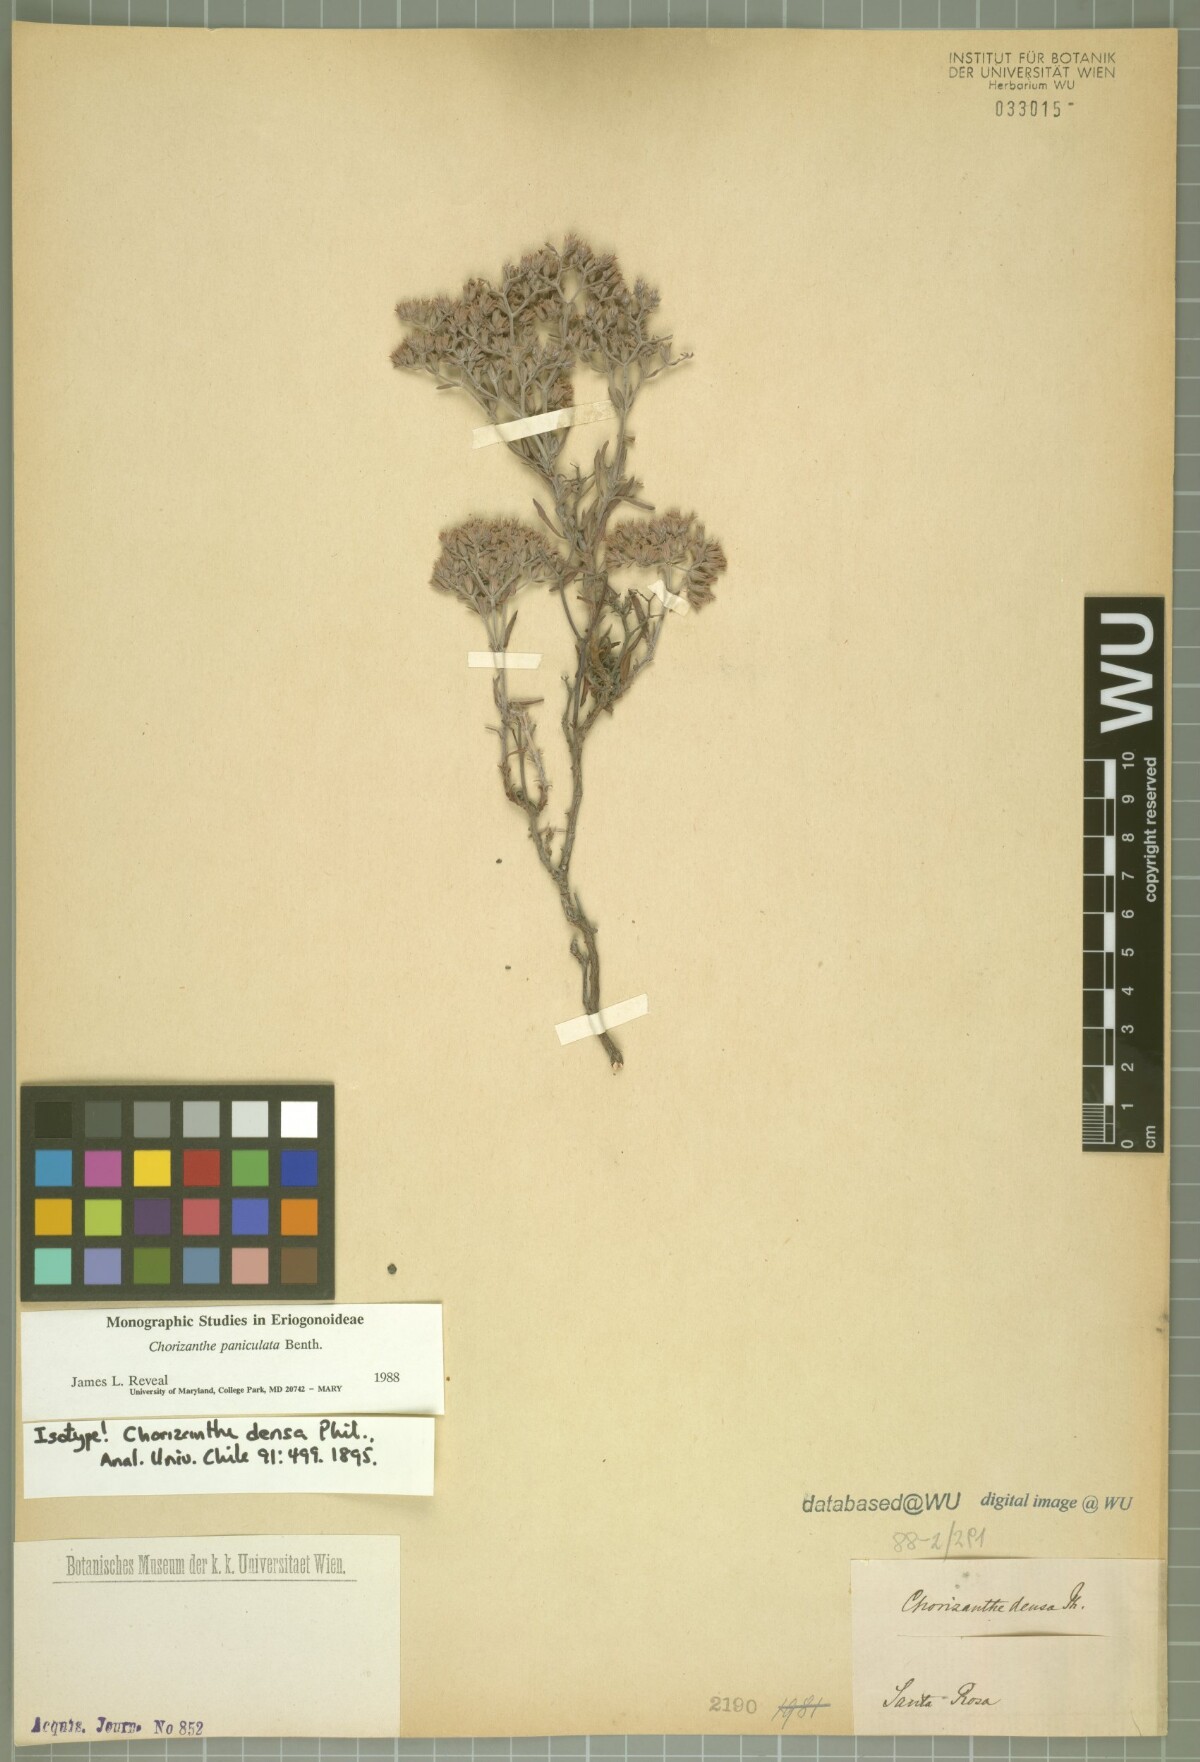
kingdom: Plantae
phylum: Tracheophyta
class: Magnoliopsida
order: Caryophyllales
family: Polygonaceae
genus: Chorizanthe
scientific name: Chorizanthe densa
